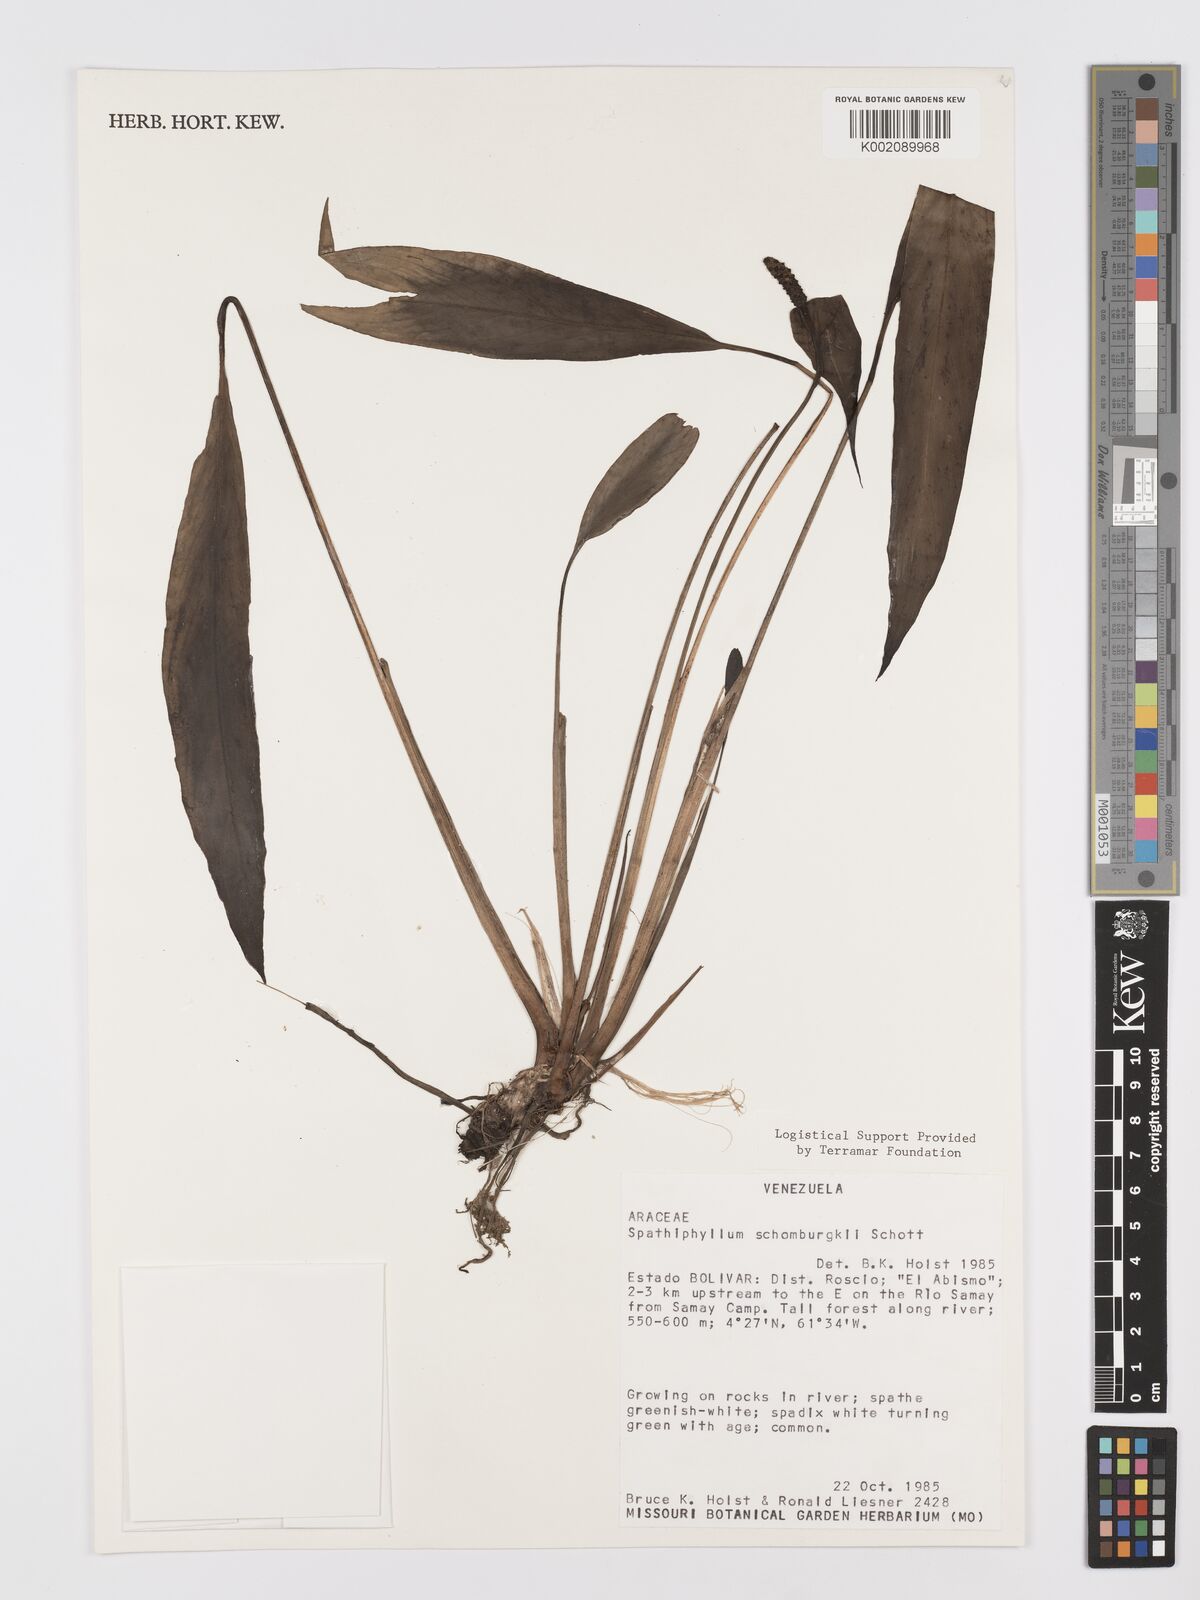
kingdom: Plantae
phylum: Tracheophyta
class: Liliopsida
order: Alismatales
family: Araceae
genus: Spathiphyllum
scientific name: Spathiphyllum schomburgkii
